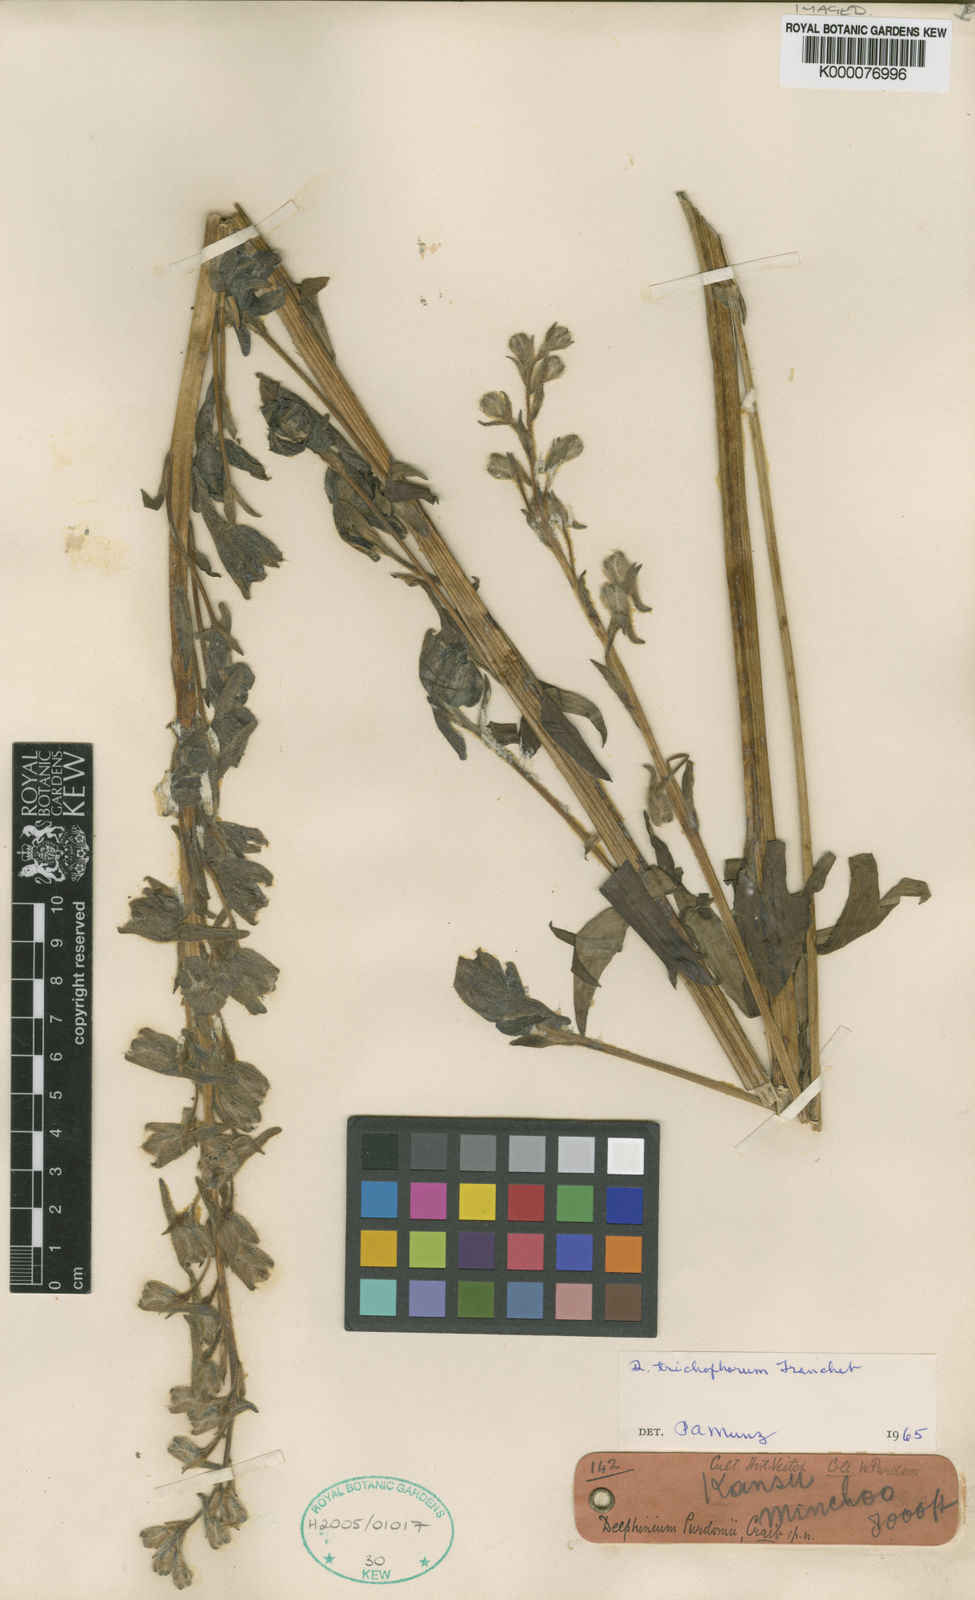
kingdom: Plantae
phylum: Tracheophyta
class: Magnoliopsida
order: Ranunculales
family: Ranunculaceae
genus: Delphinium
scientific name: Delphinium trichophorum
